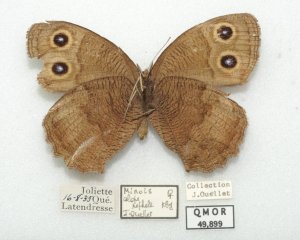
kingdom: Animalia
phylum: Arthropoda
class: Insecta
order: Lepidoptera
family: Nymphalidae
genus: Cercyonis
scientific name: Cercyonis pegala
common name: Common Wood-Nymph
